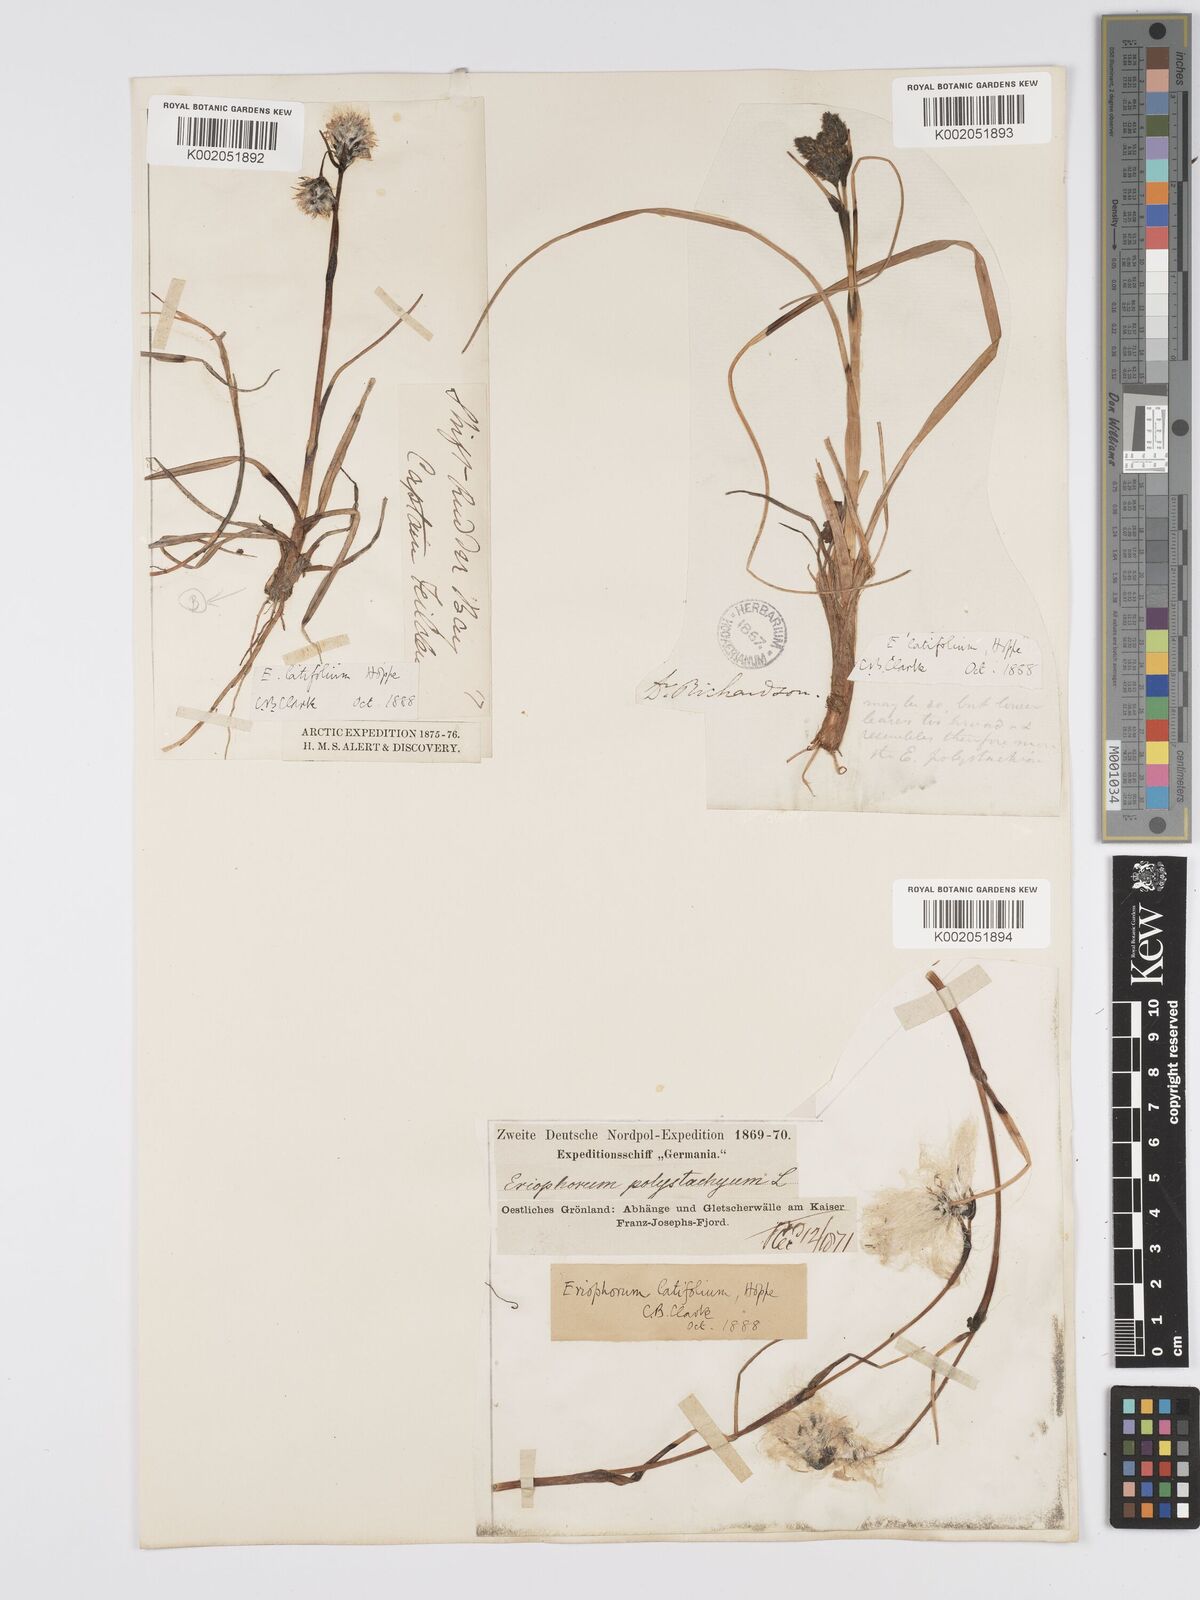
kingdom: Plantae
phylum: Tracheophyta
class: Liliopsida
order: Poales
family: Cyperaceae
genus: Eriophorum
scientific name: Eriophorum latifolium
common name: Broad-leaved cottongrass
